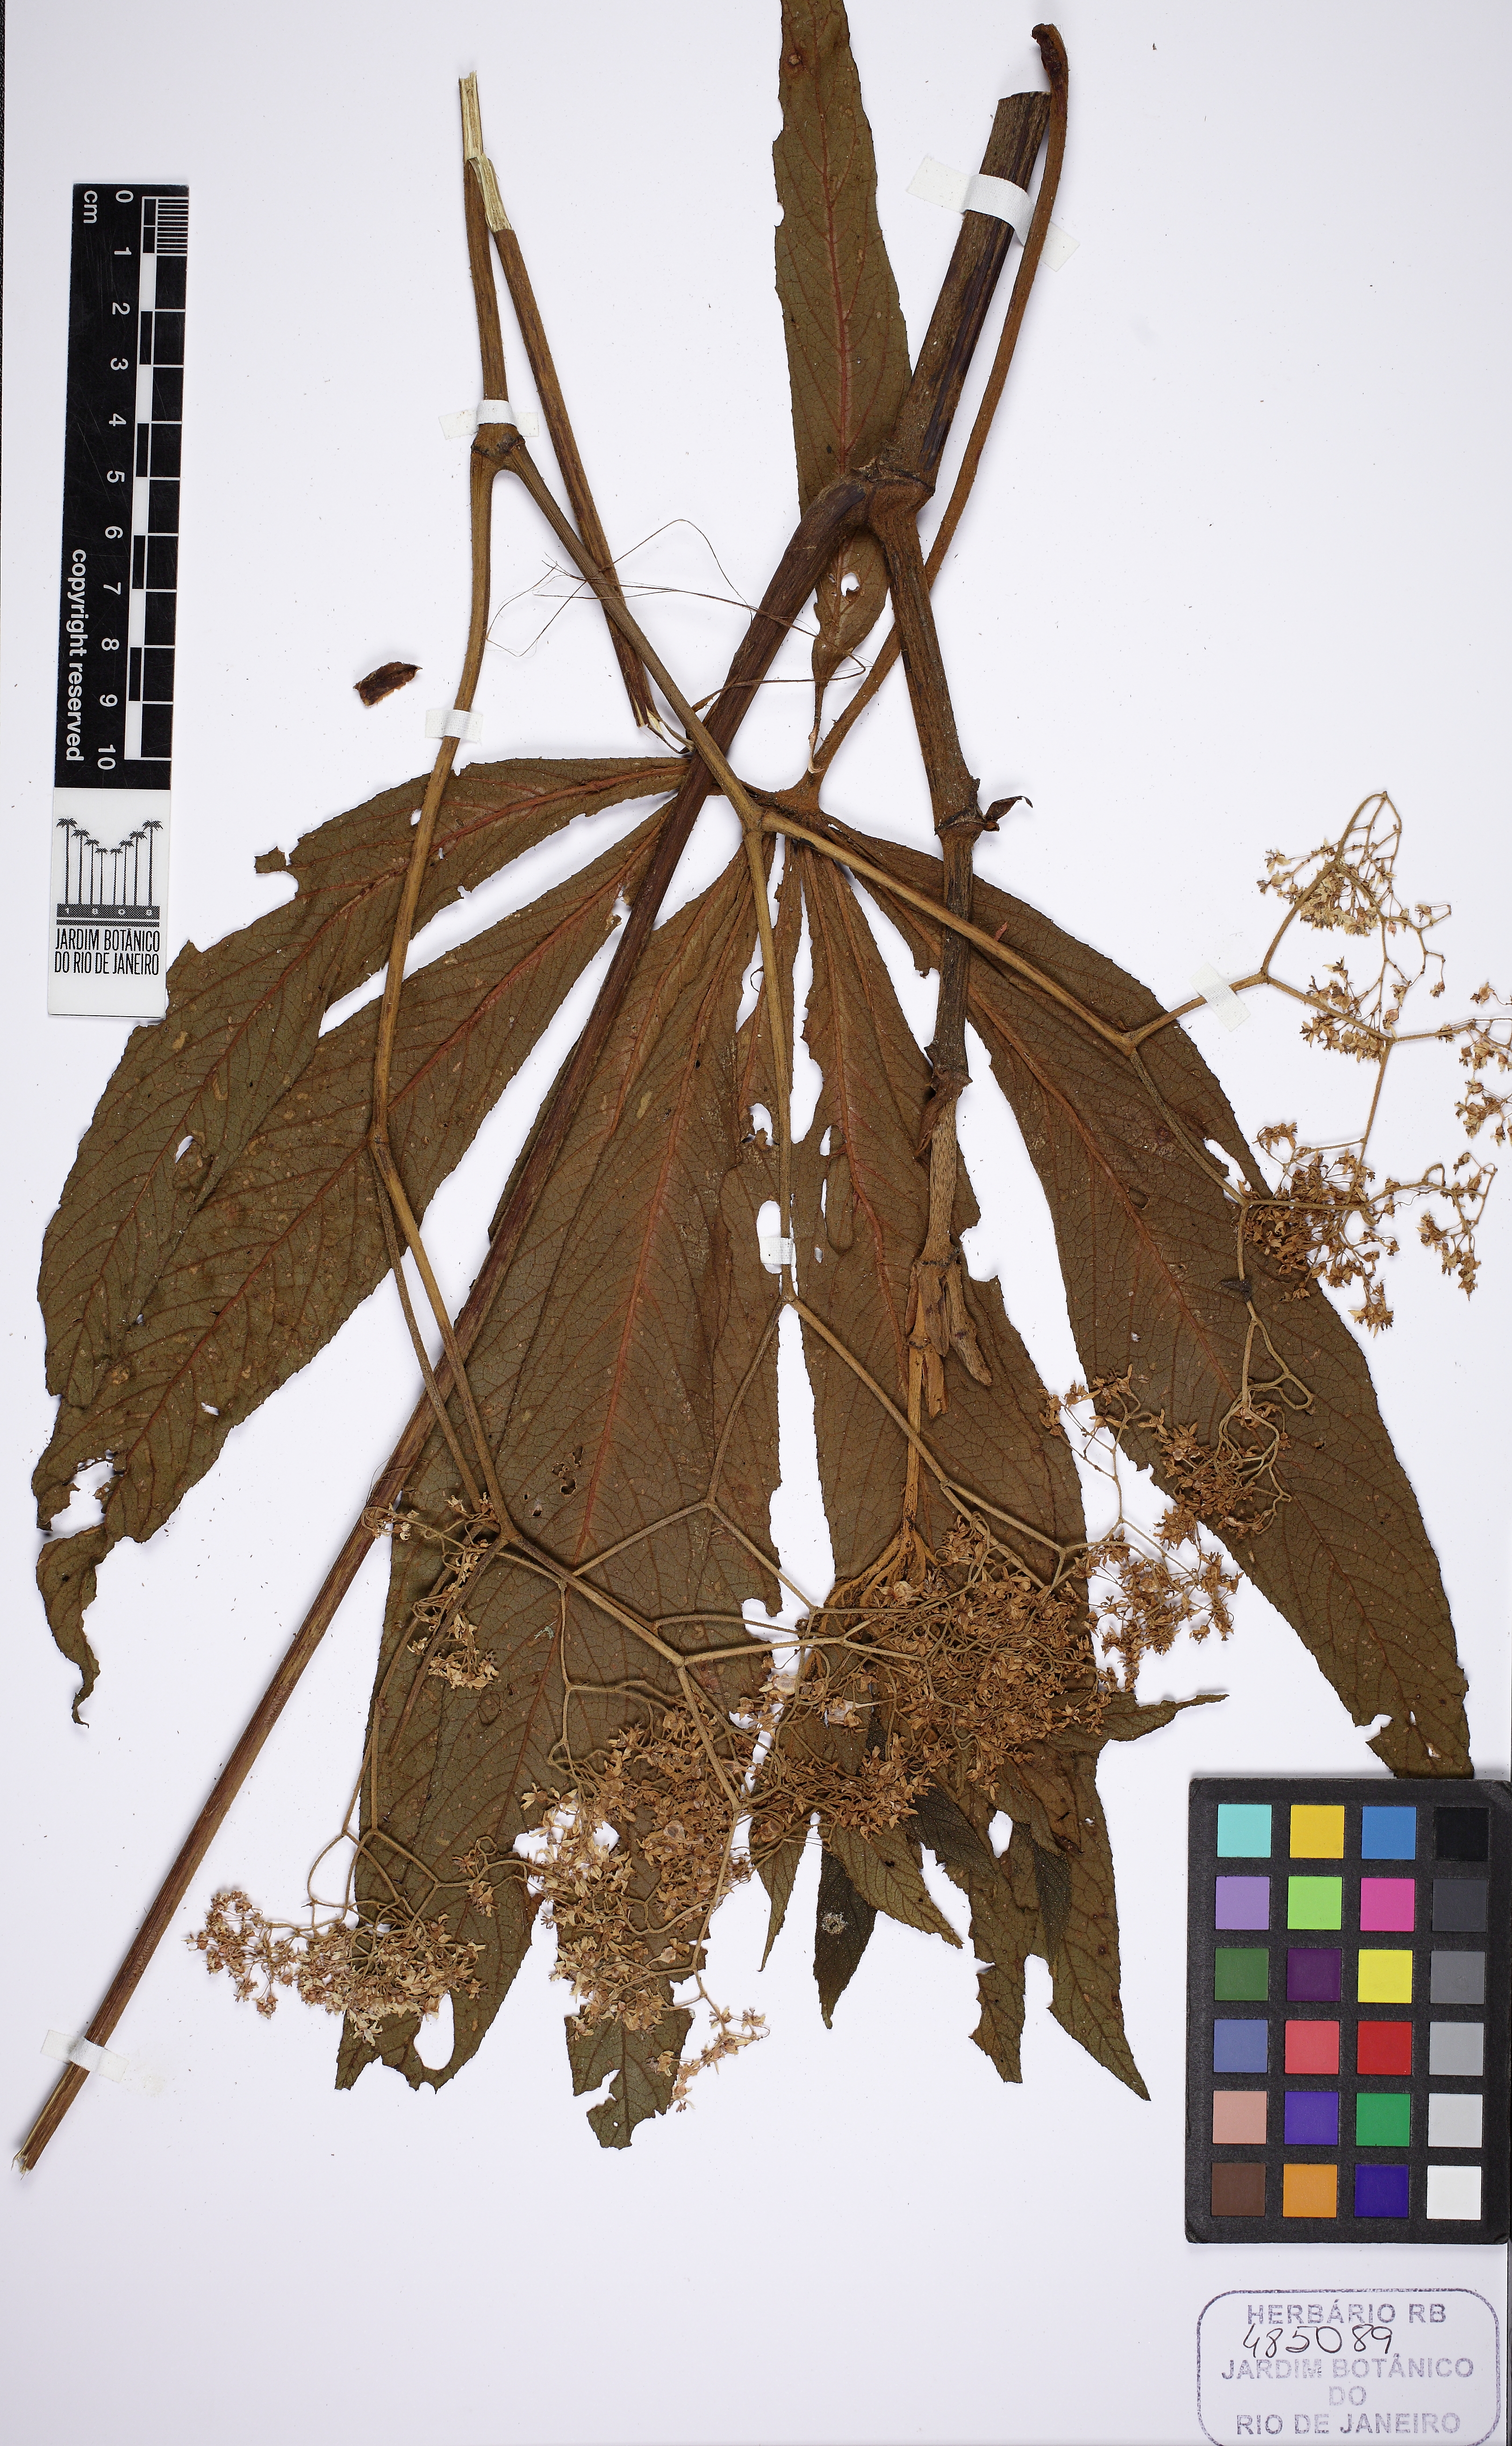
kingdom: Plantae
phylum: Tracheophyta
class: Magnoliopsida
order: Cucurbitales
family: Begoniaceae
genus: Begonia
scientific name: Begonia digitata
